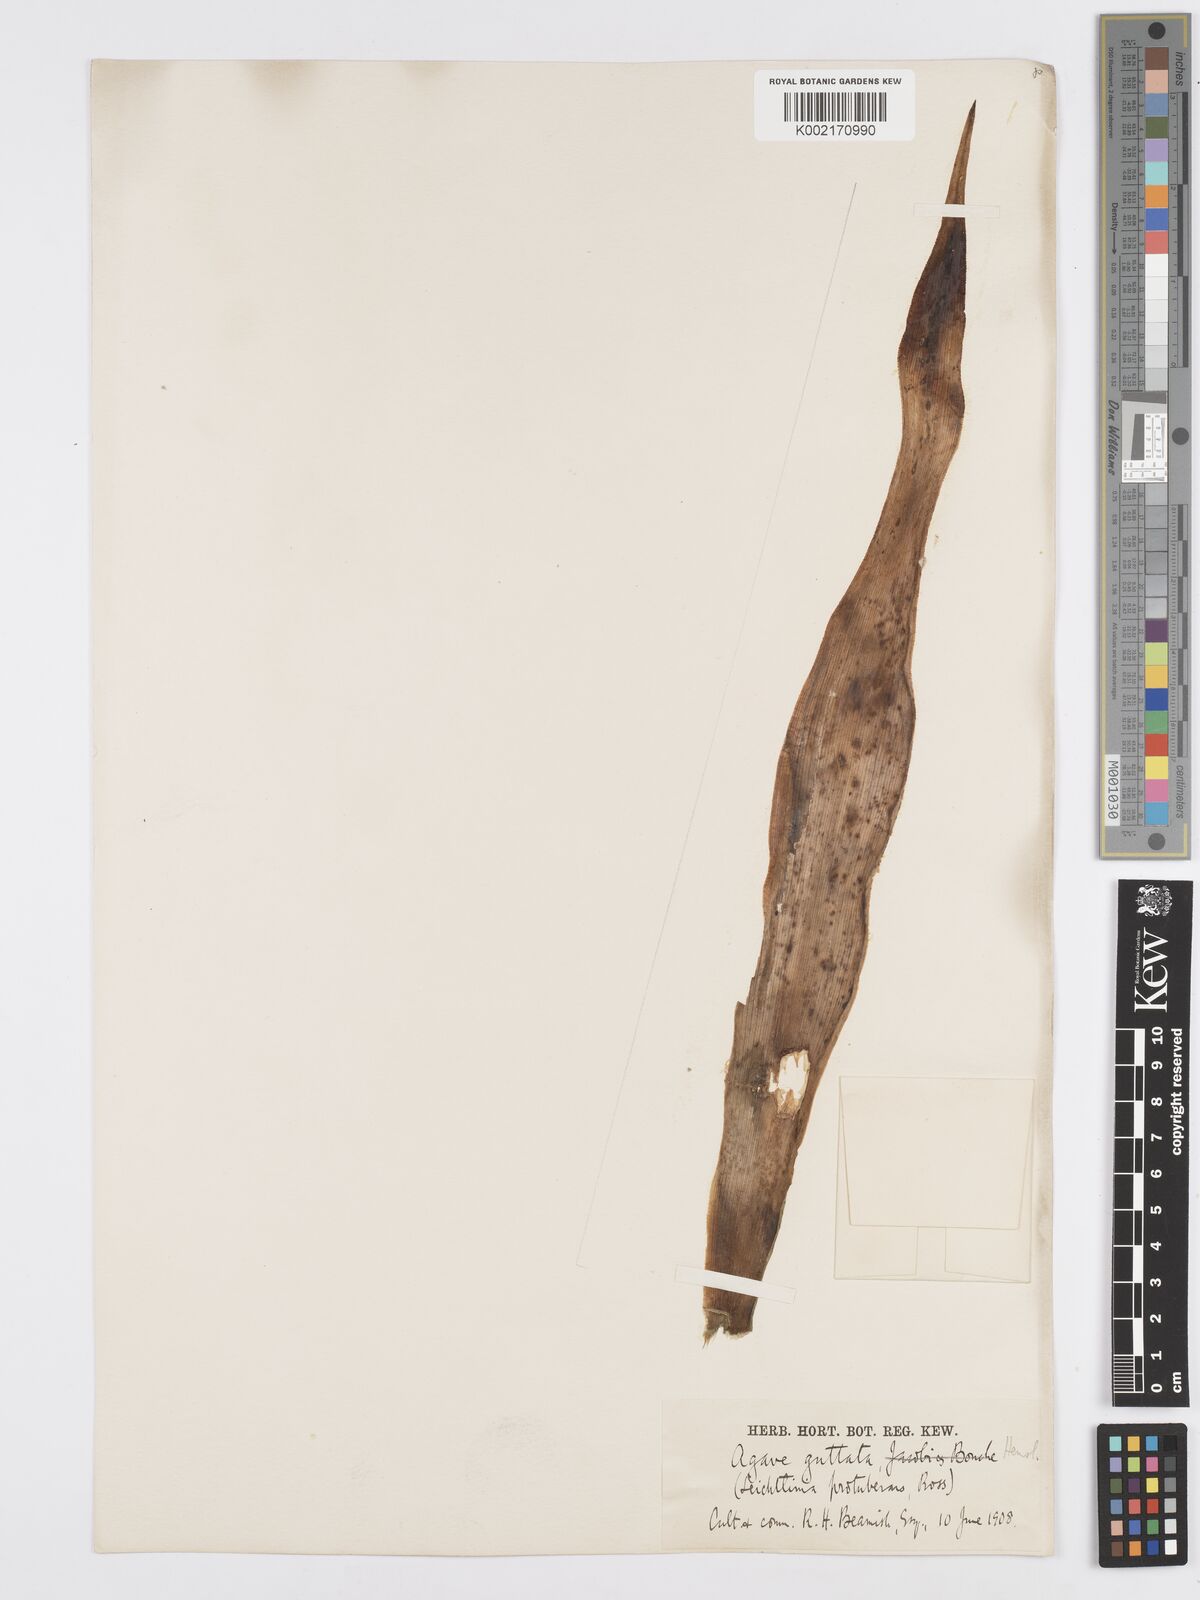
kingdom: Plantae
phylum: Tracheophyta
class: Liliopsida
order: Asparagales
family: Asparagaceae
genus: Agave
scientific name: Agave guttata
